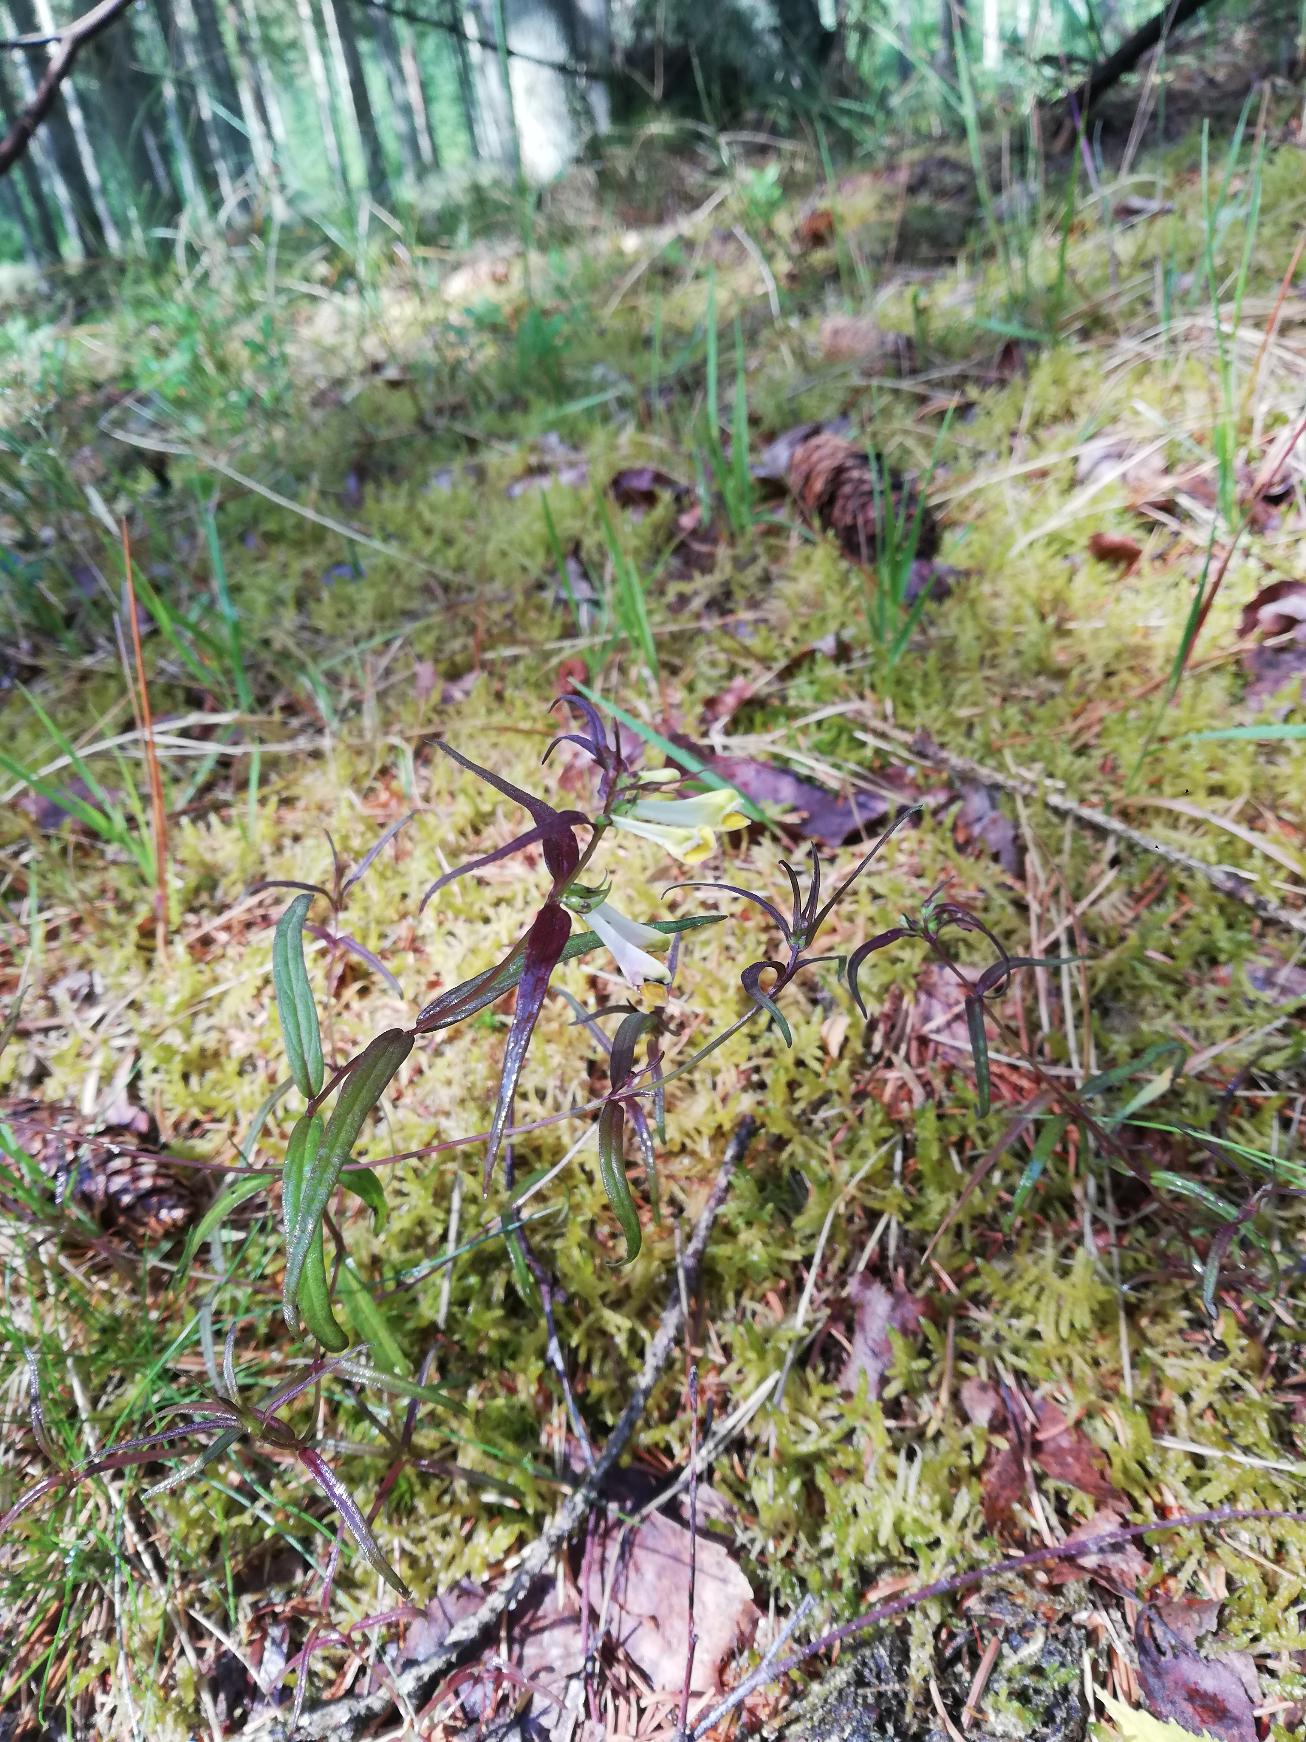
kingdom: Plantae
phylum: Tracheophyta
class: Magnoliopsida
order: Lamiales
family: Orobanchaceae
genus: Melampyrum
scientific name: Melampyrum pratense
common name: Almindelig kohvede
